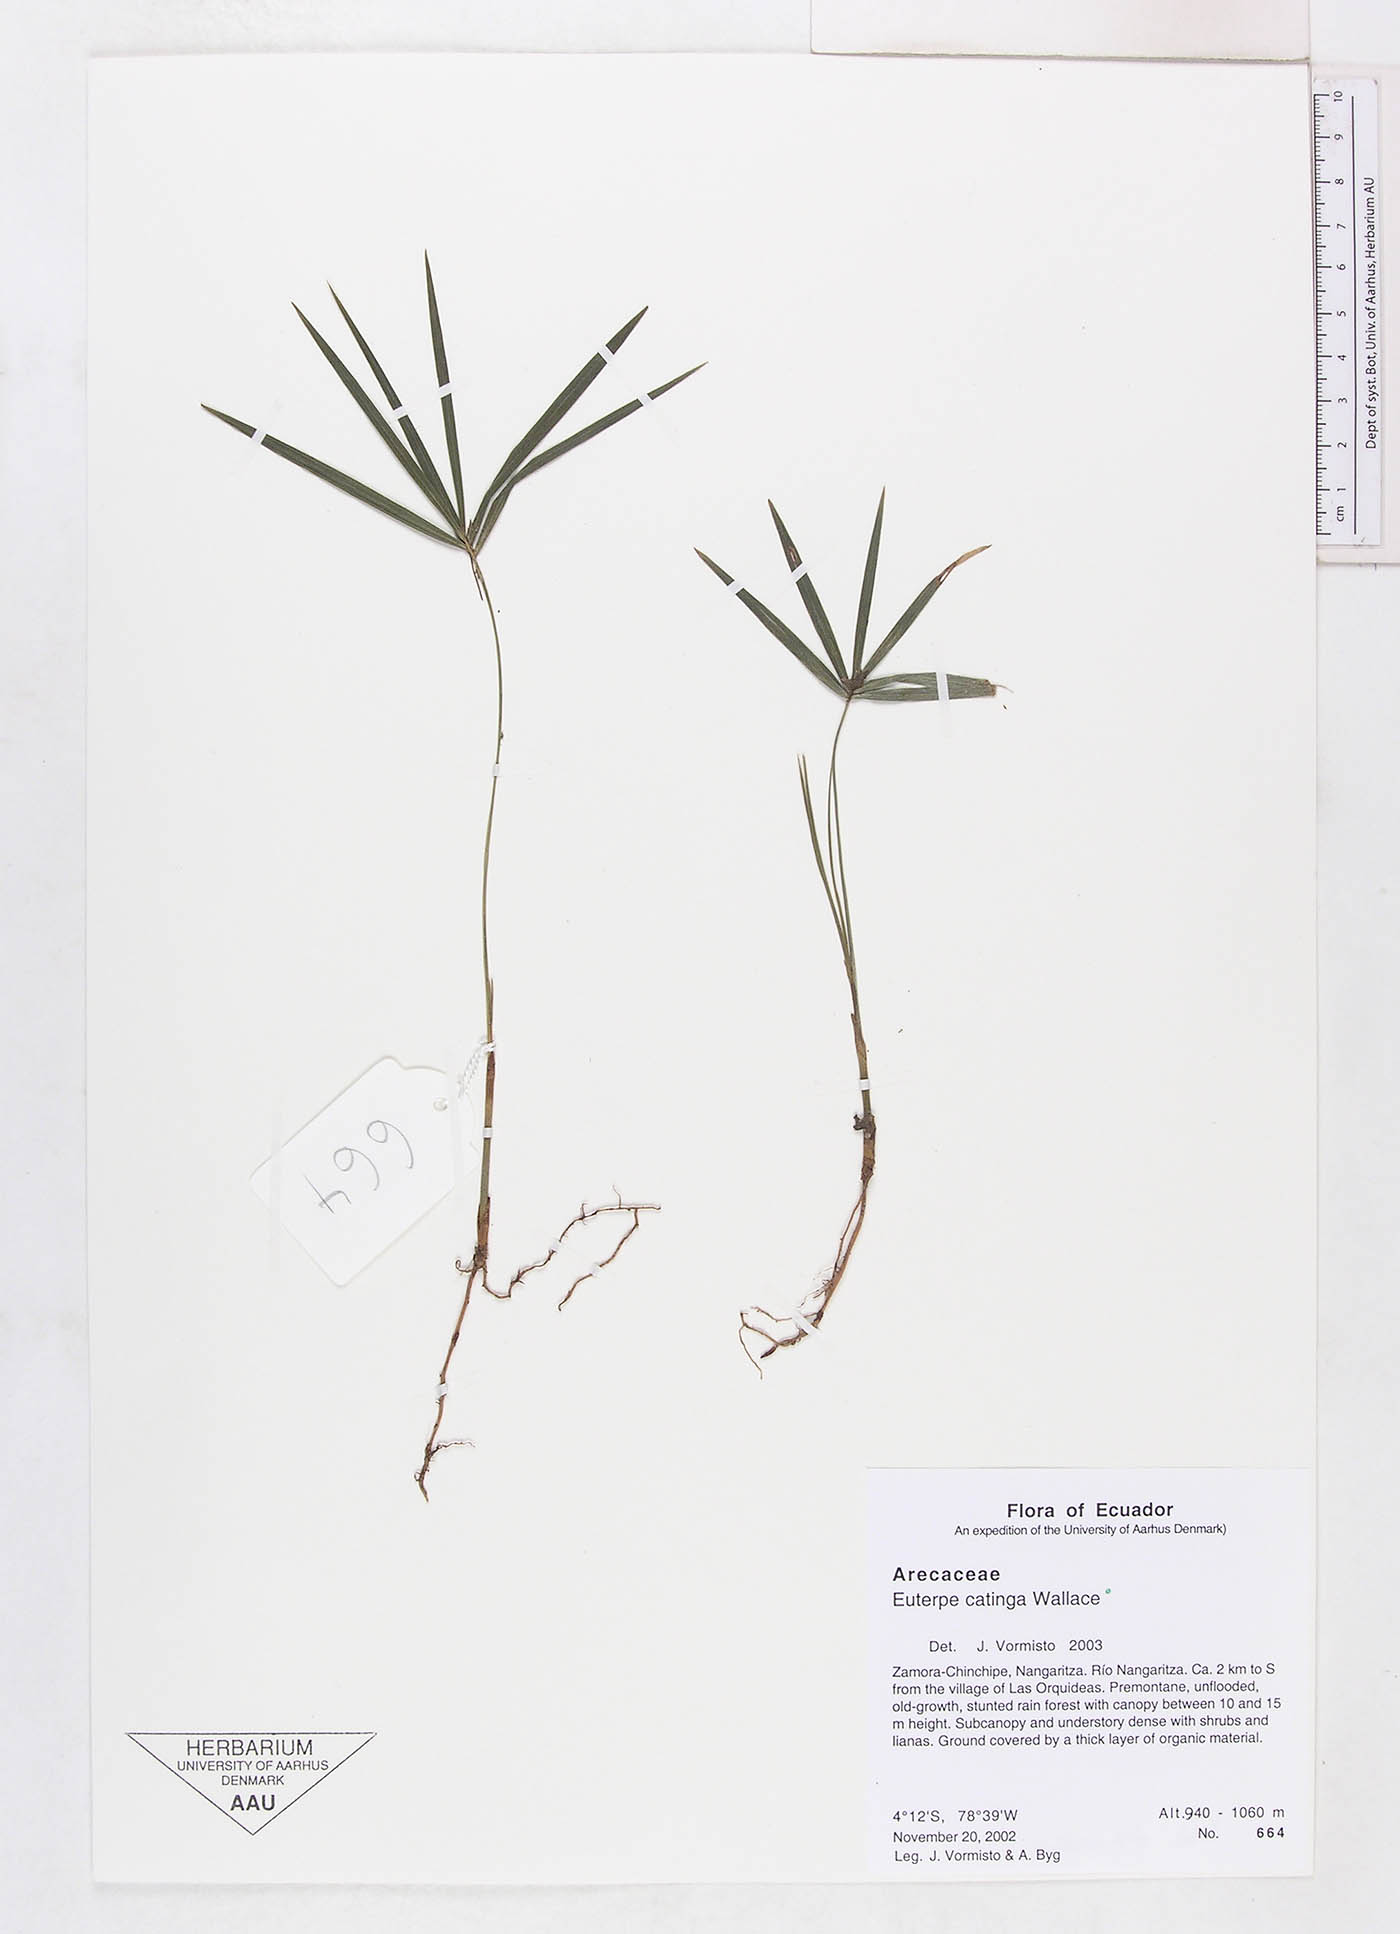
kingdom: Plantae
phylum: Tracheophyta
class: Liliopsida
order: Arecales
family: Arecaceae
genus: Euterpe
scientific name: Euterpe catinga
